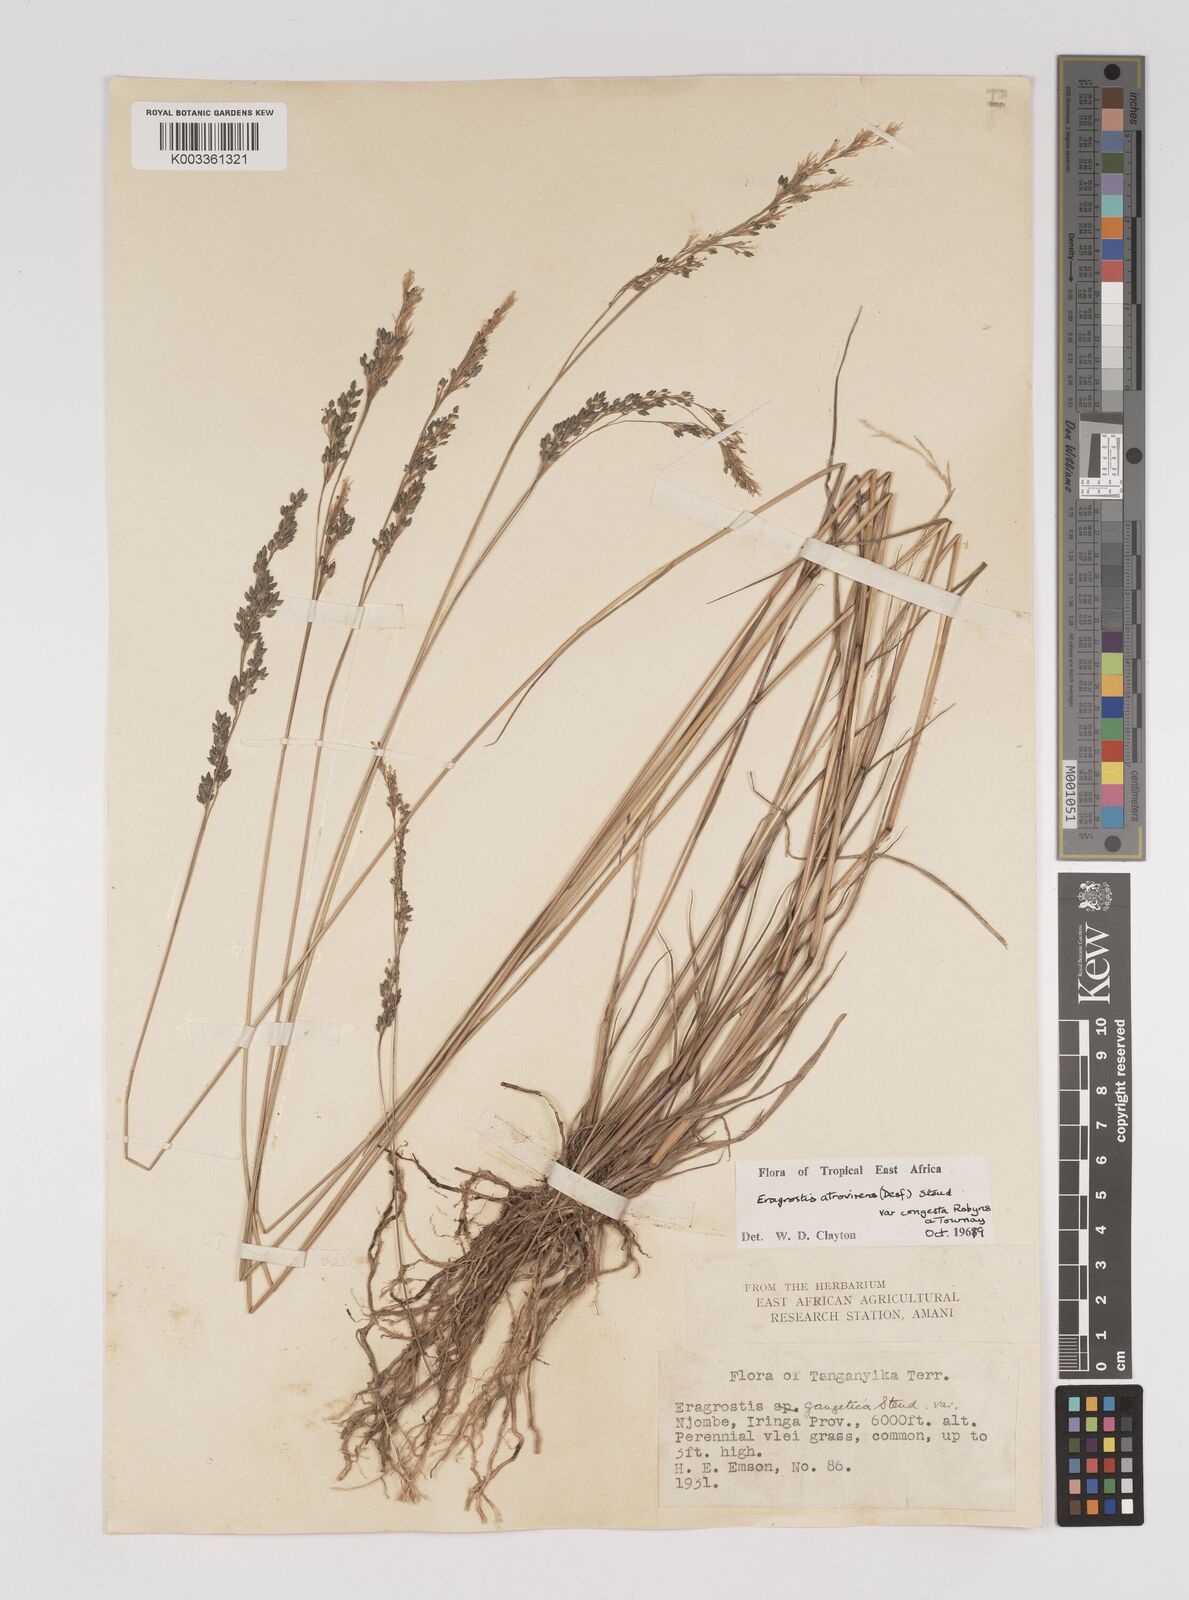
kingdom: Plantae
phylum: Tracheophyta
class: Liliopsida
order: Poales
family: Poaceae
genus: Eragrostis
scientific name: Eragrostis botryodes
